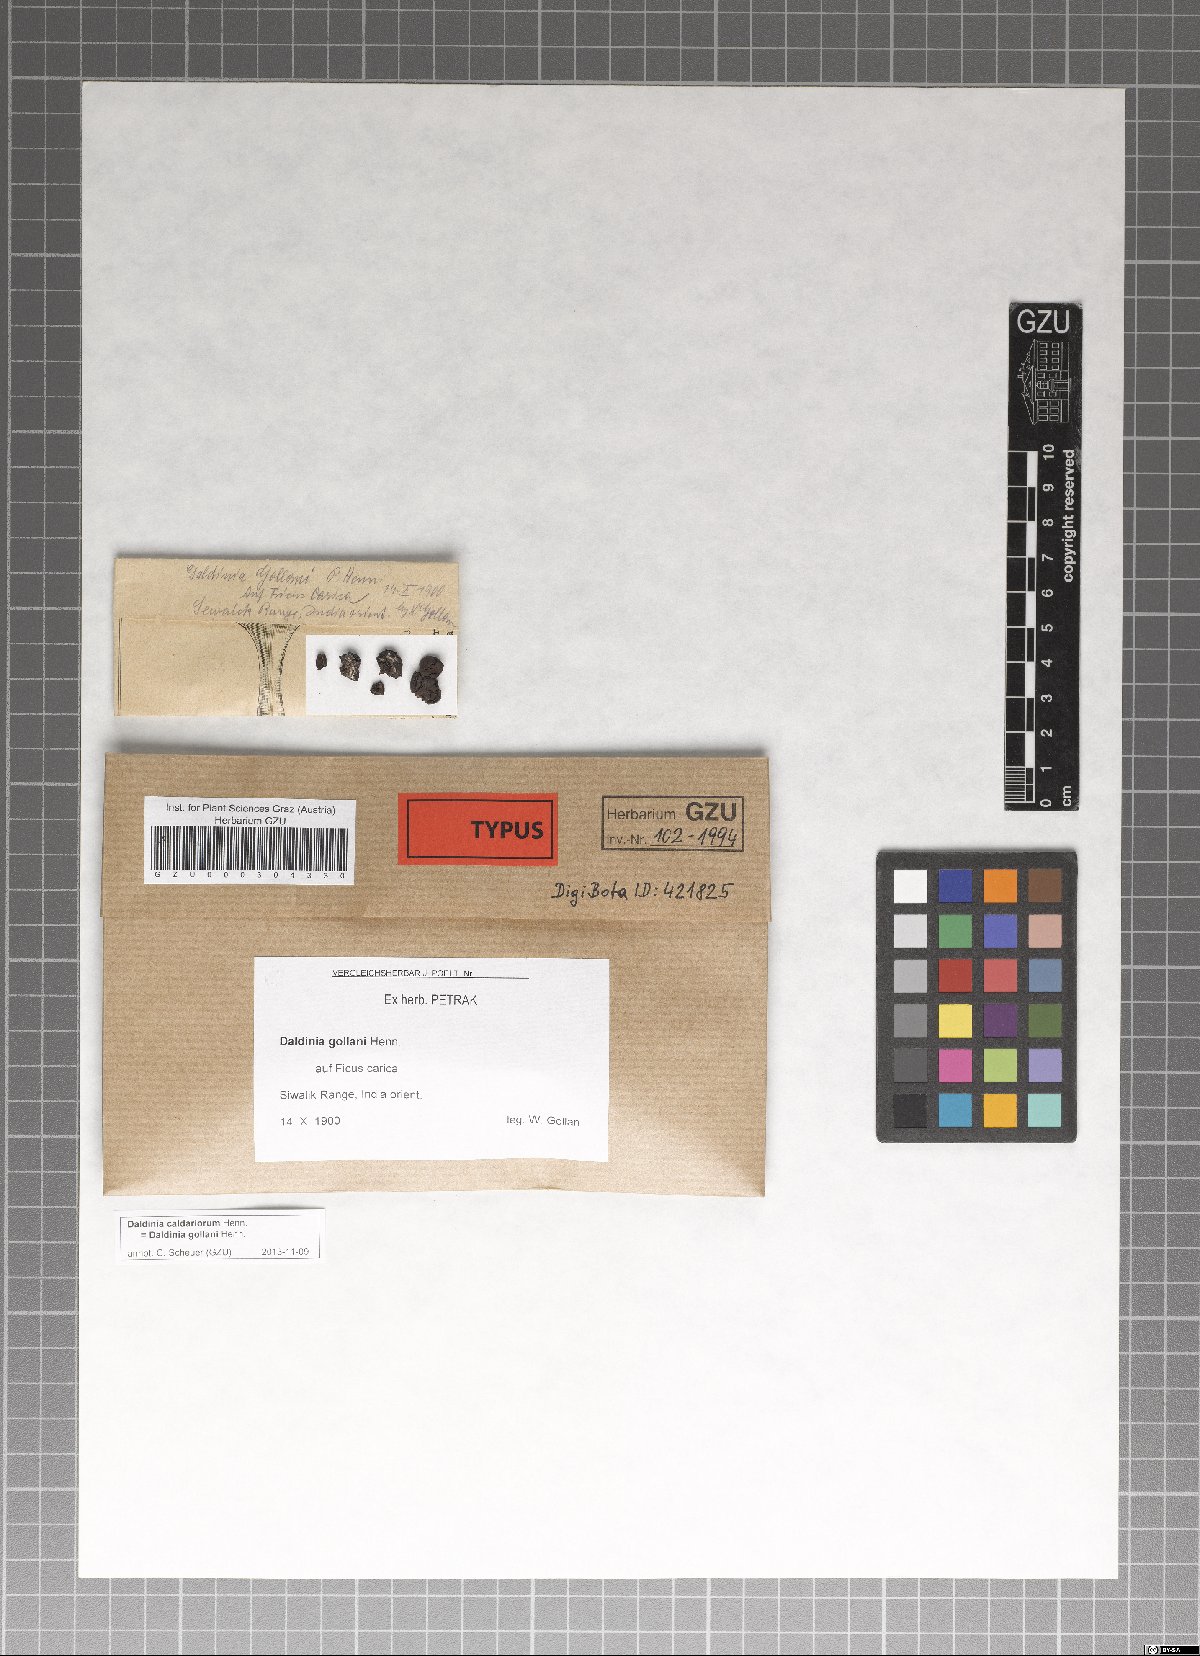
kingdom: Fungi
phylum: Ascomycota
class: Sordariomycetes
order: Xylariales
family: Hypoxylaceae
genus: Daldinia
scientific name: Daldinia caldariorum
